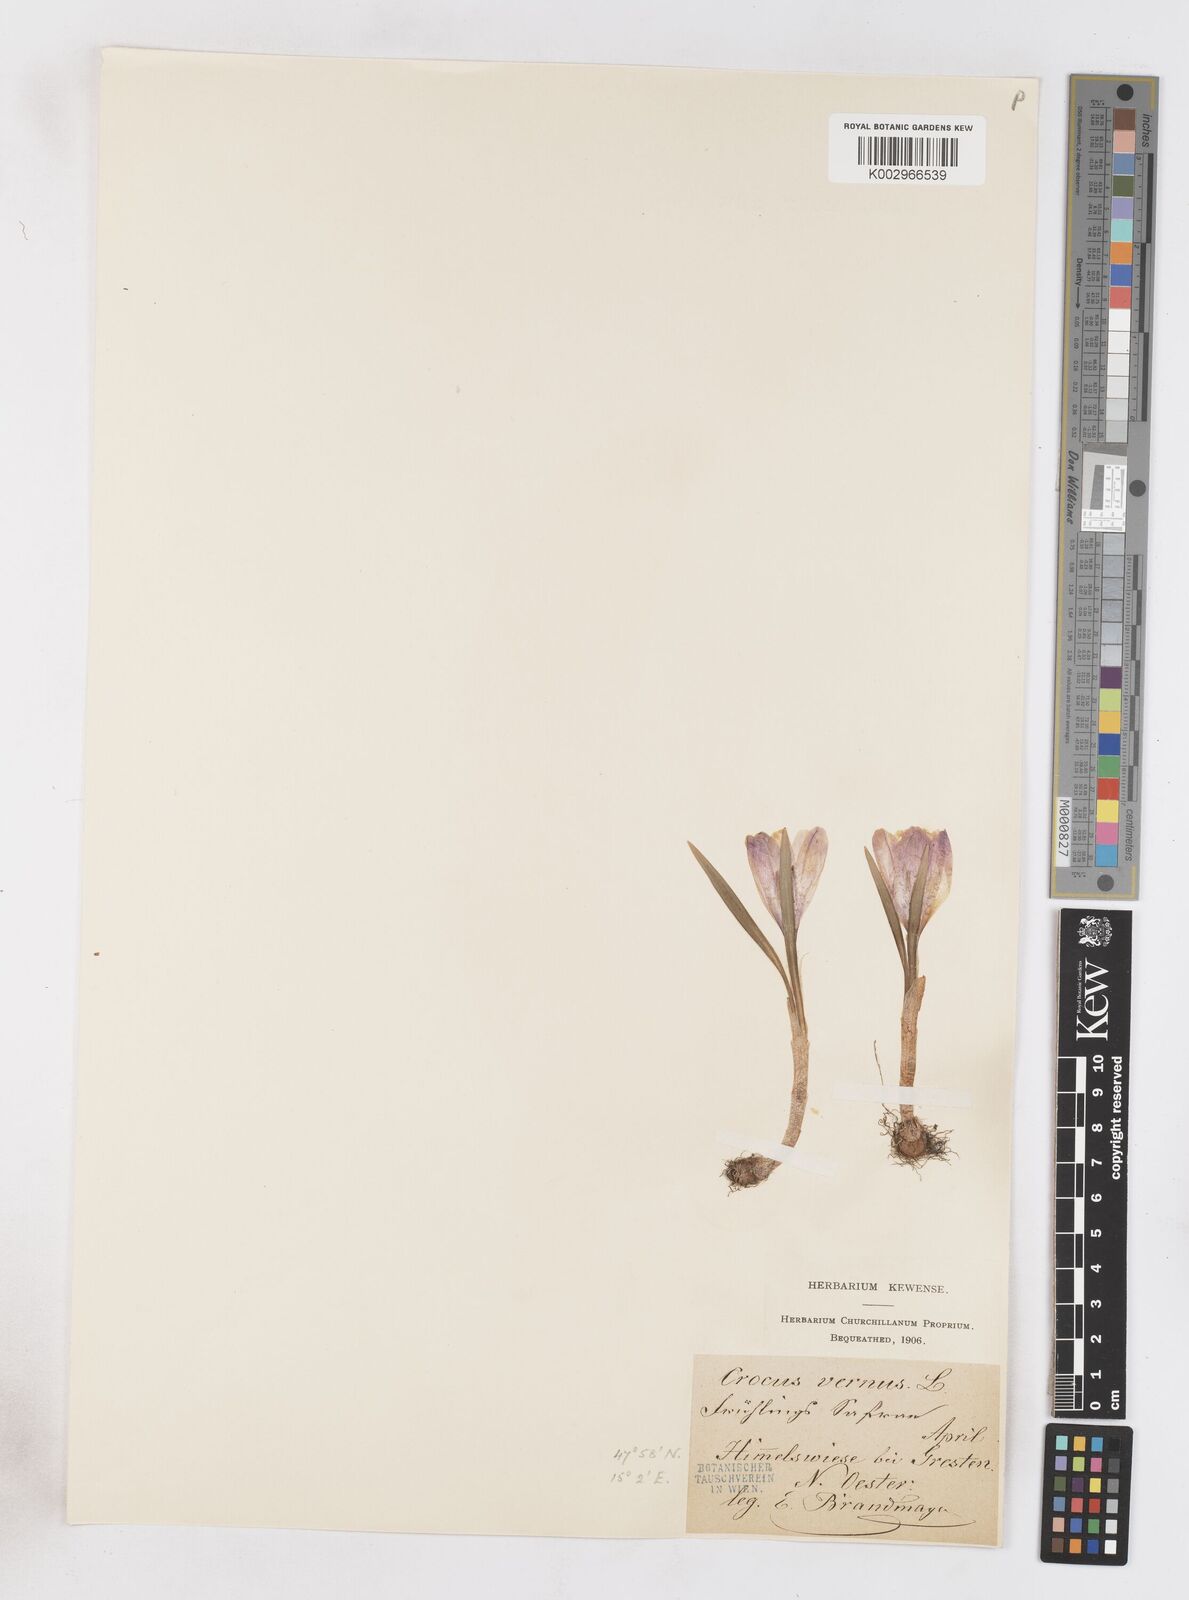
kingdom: Plantae
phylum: Tracheophyta
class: Liliopsida
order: Asparagales
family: Iridaceae
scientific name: Iridaceae
